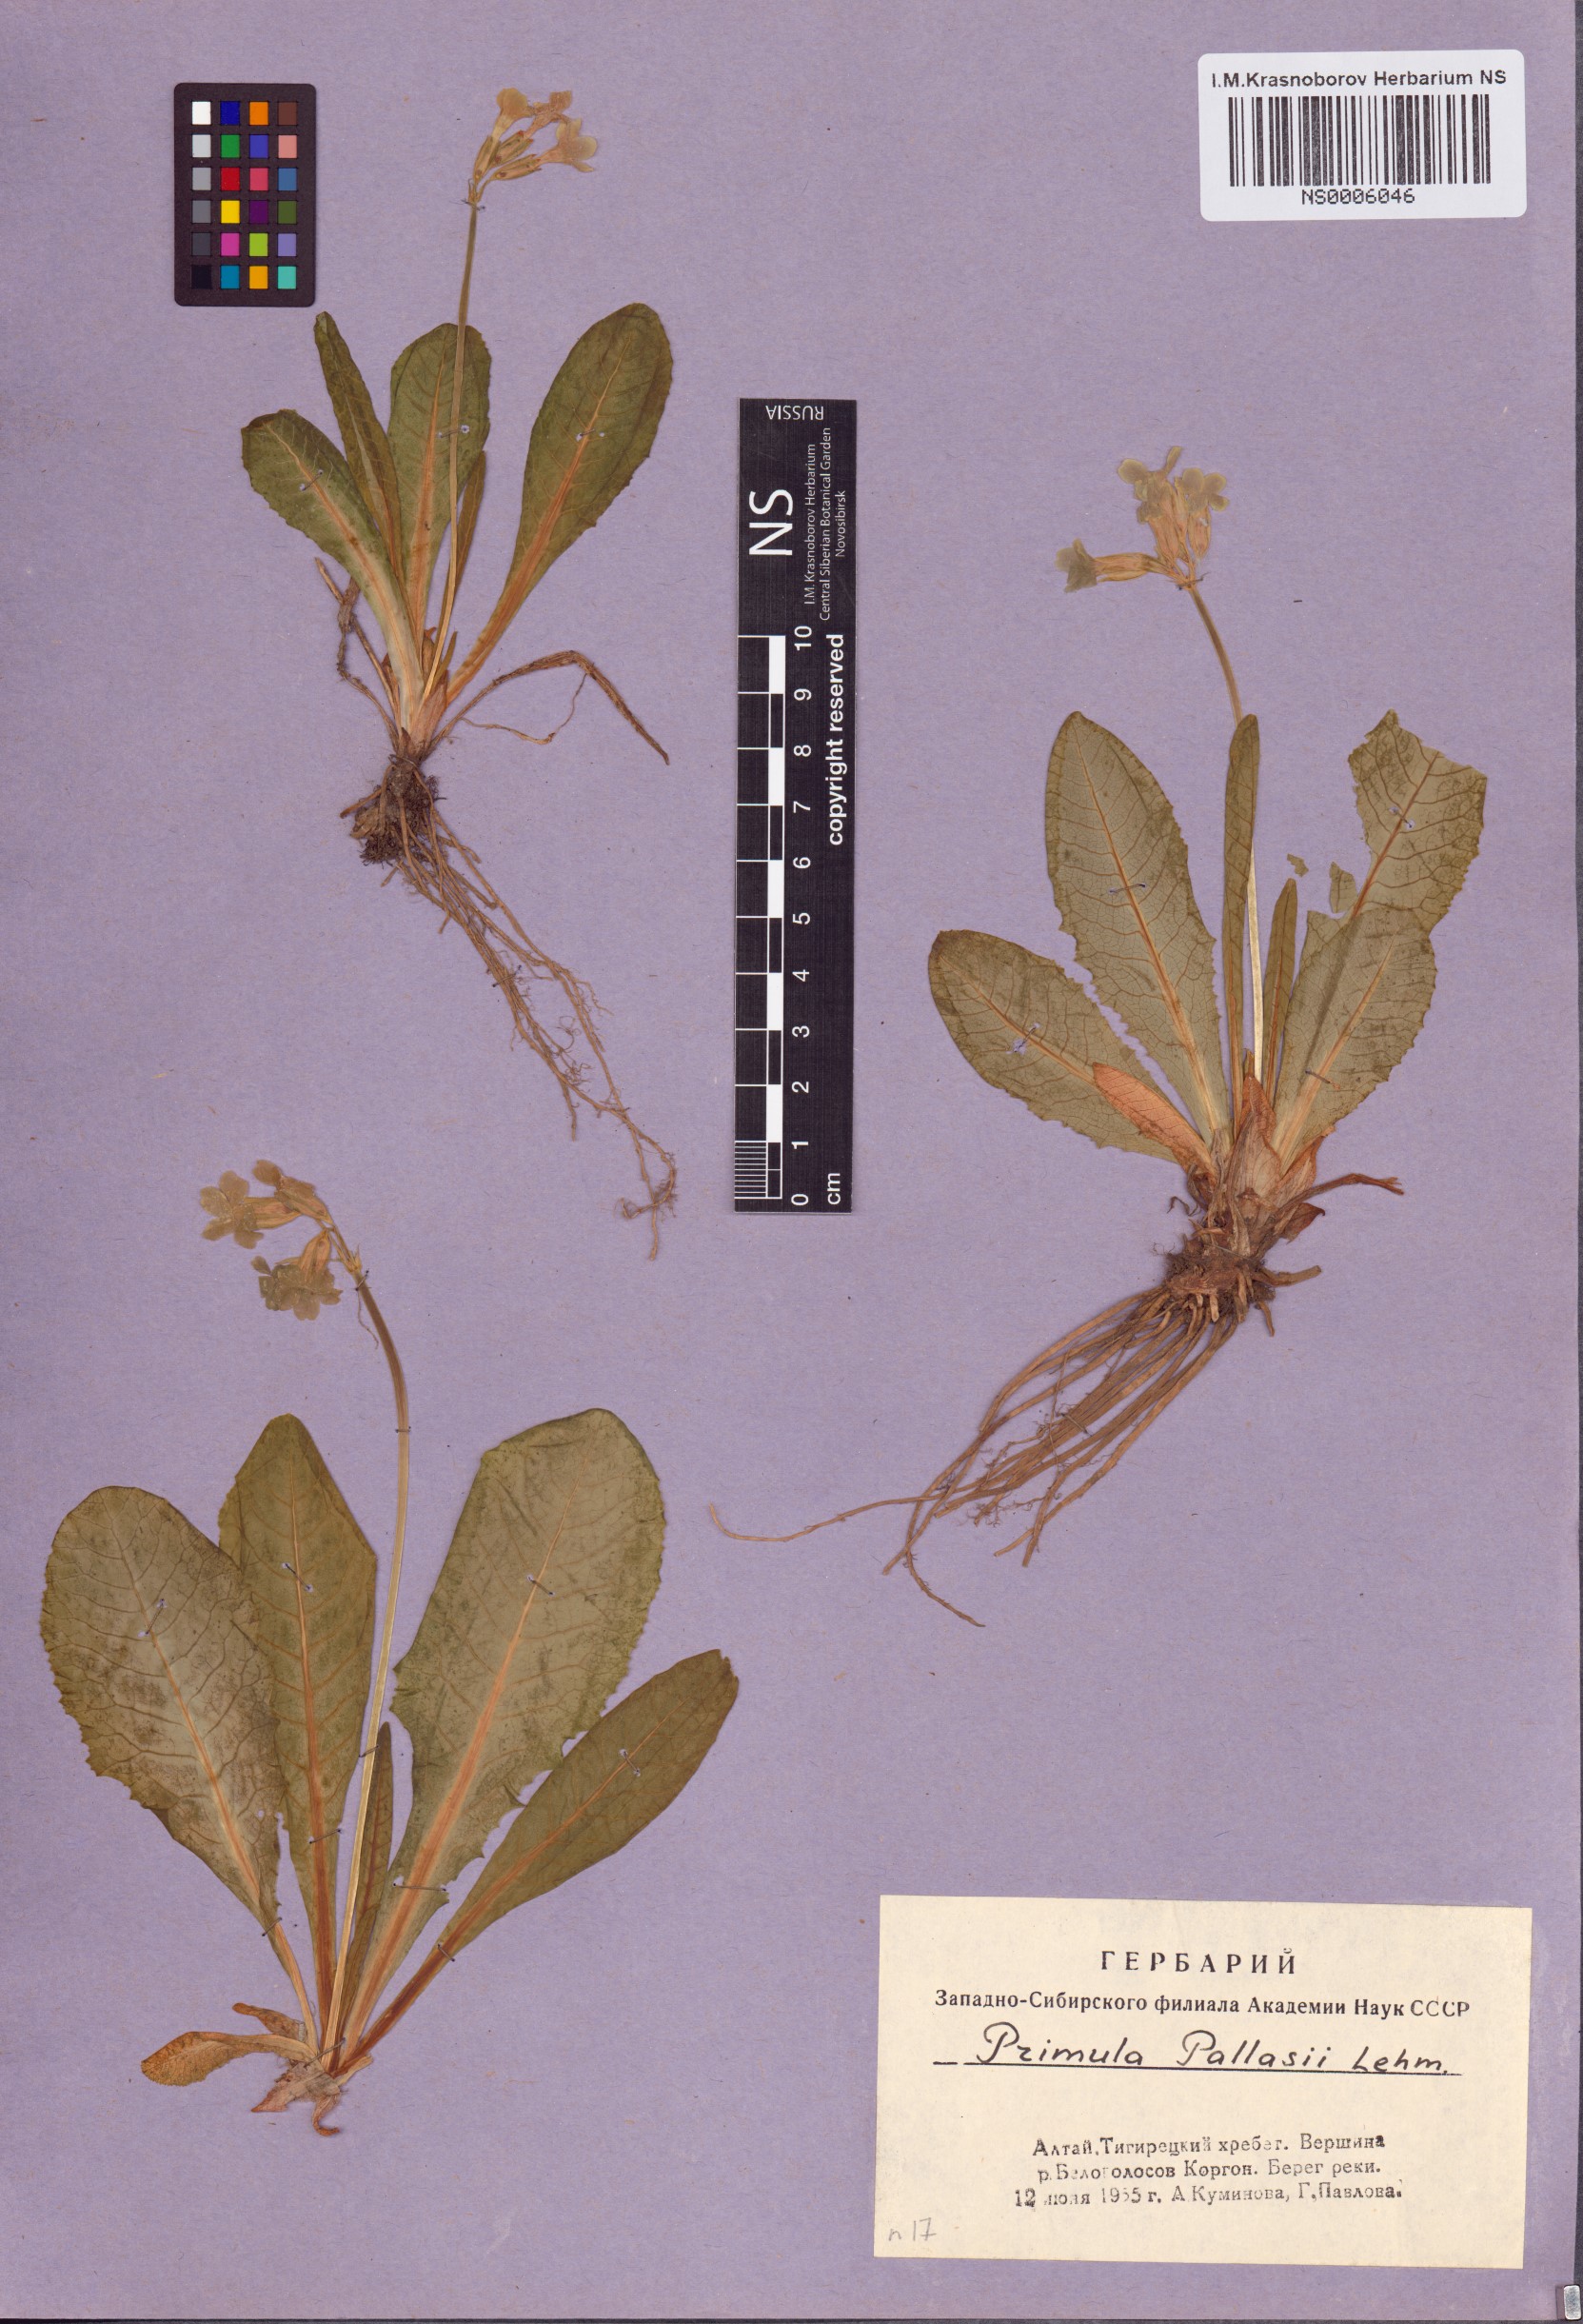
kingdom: Plantae
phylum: Tracheophyta
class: Magnoliopsida
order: Ericales
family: Primulaceae
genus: Primula
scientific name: Primula elatior
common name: Oxlip
